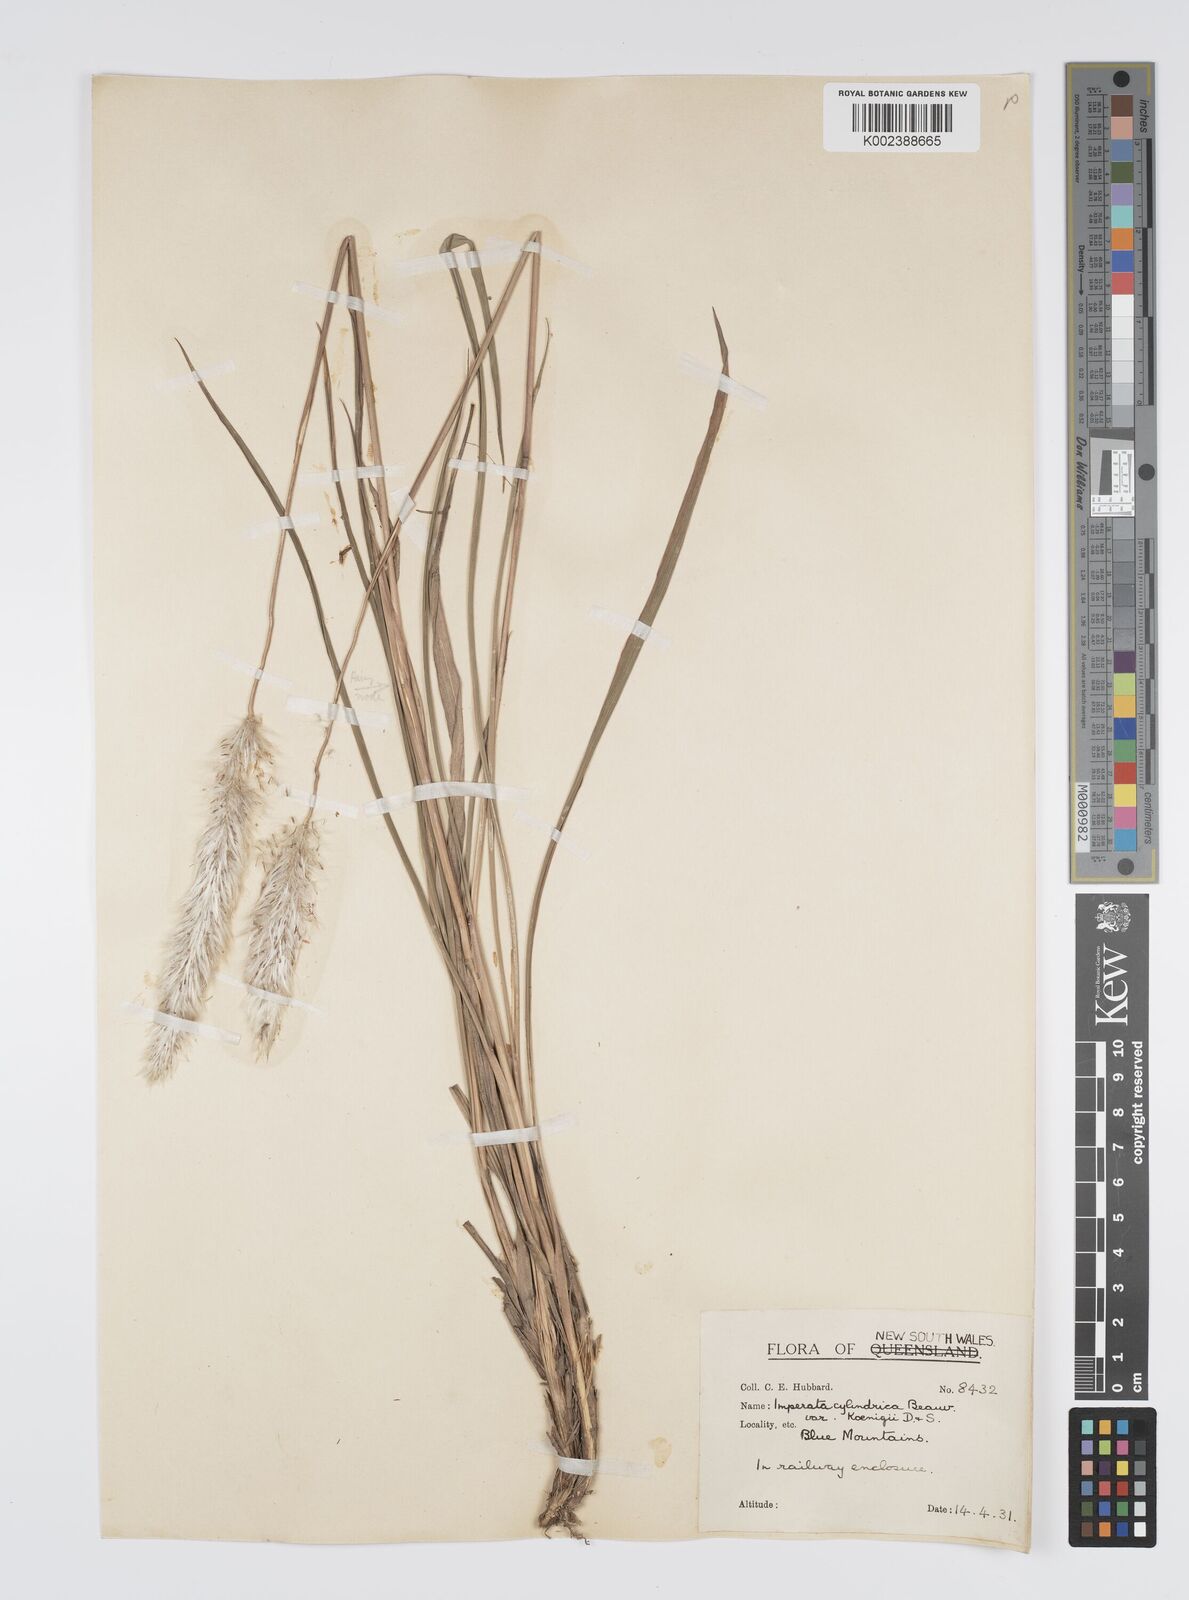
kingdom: Plantae
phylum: Tracheophyta
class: Liliopsida
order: Poales
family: Poaceae
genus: Imperata
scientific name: Imperata cylindrica
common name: Cogongrass
